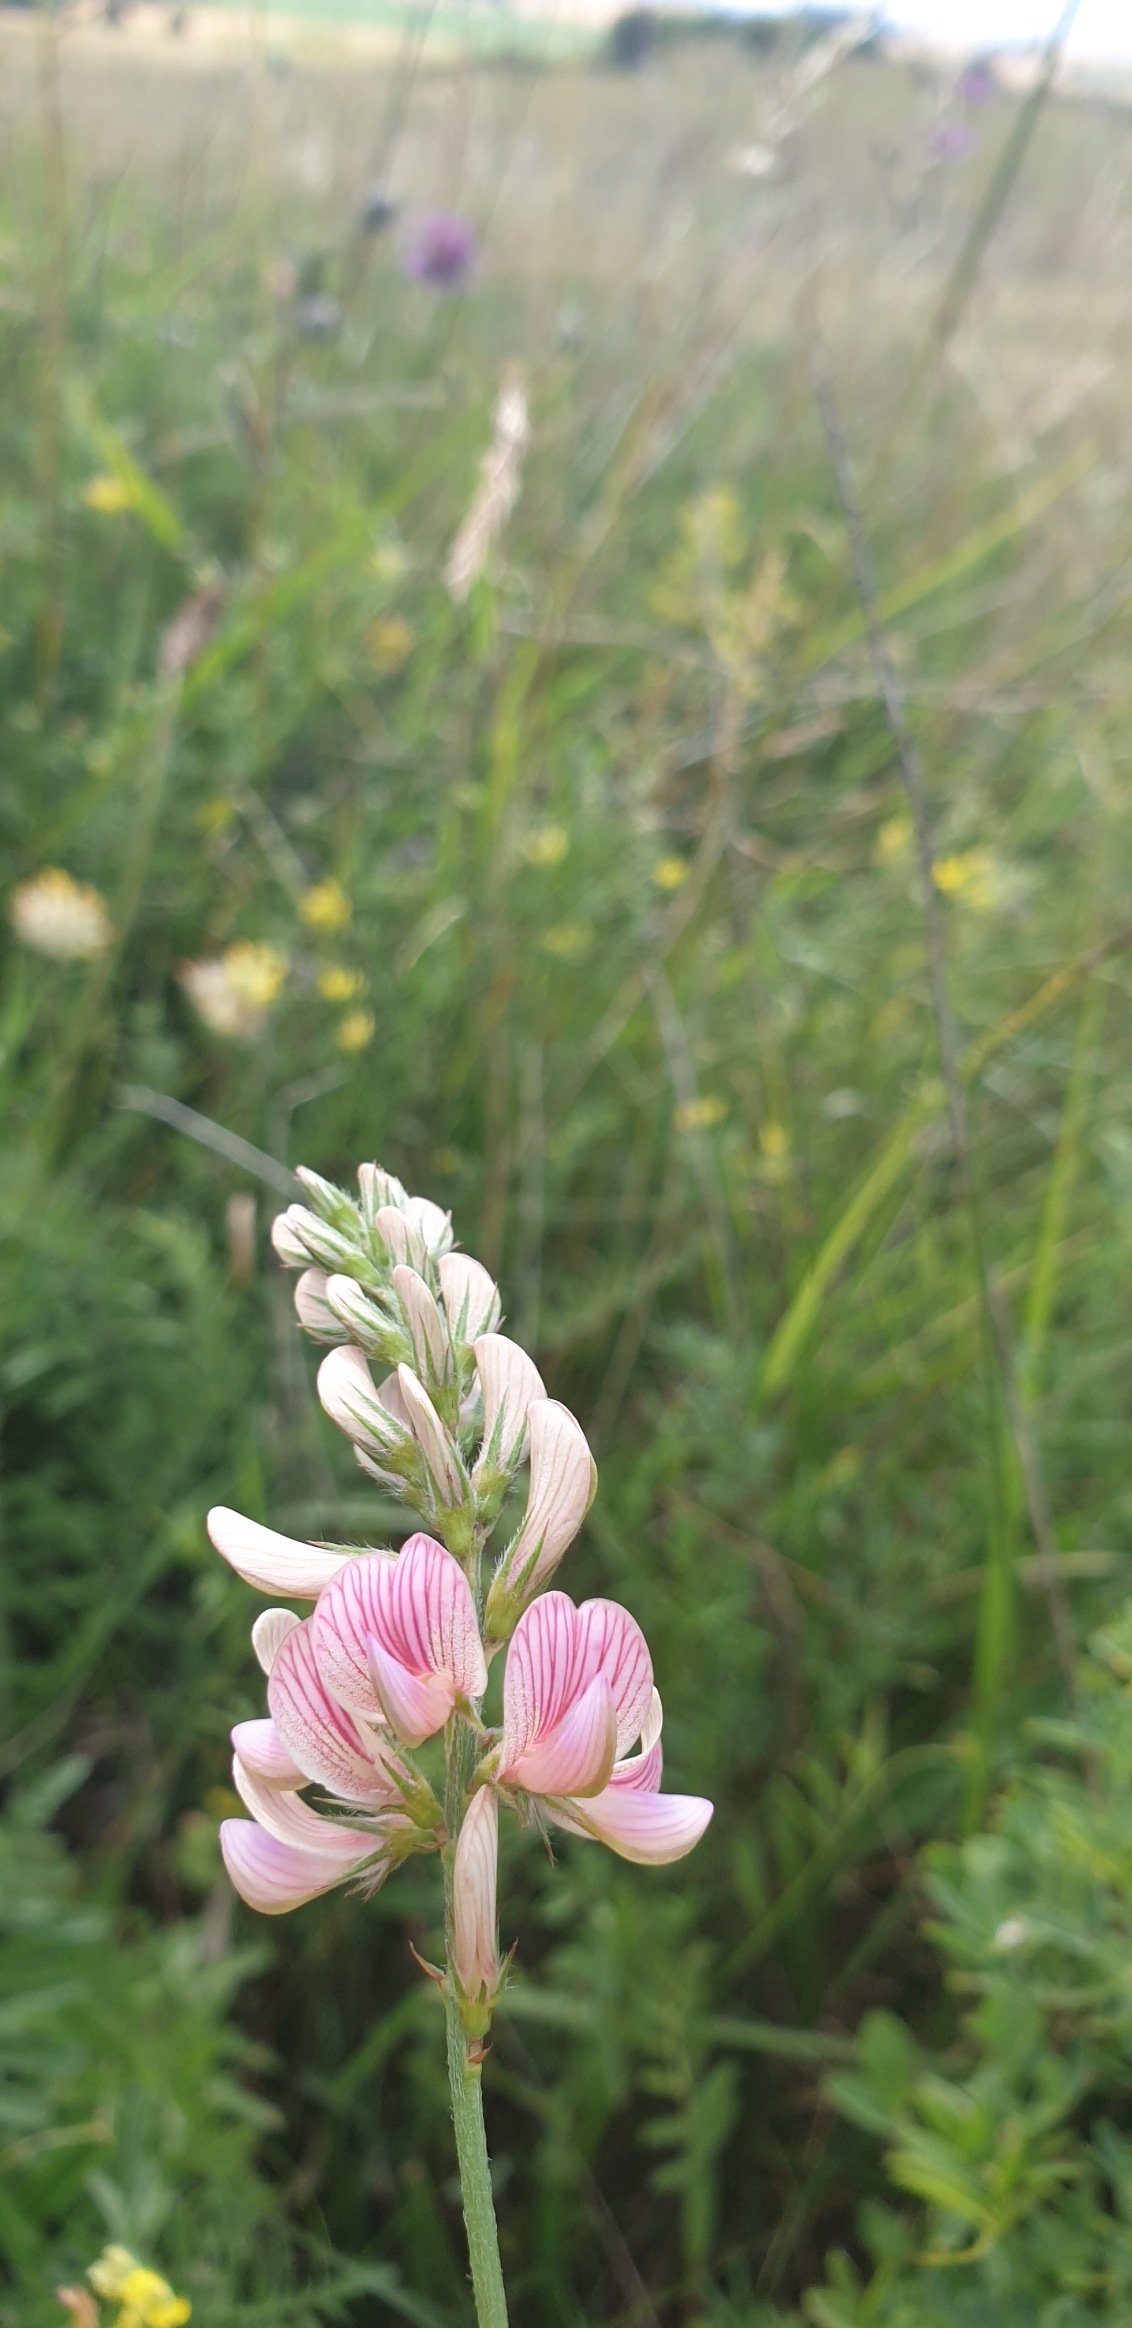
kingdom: Plantae
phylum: Tracheophyta
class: Magnoliopsida
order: Fabales
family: Fabaceae
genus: Onobrychis
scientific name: Onobrychis viciifolia
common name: Esparsette
